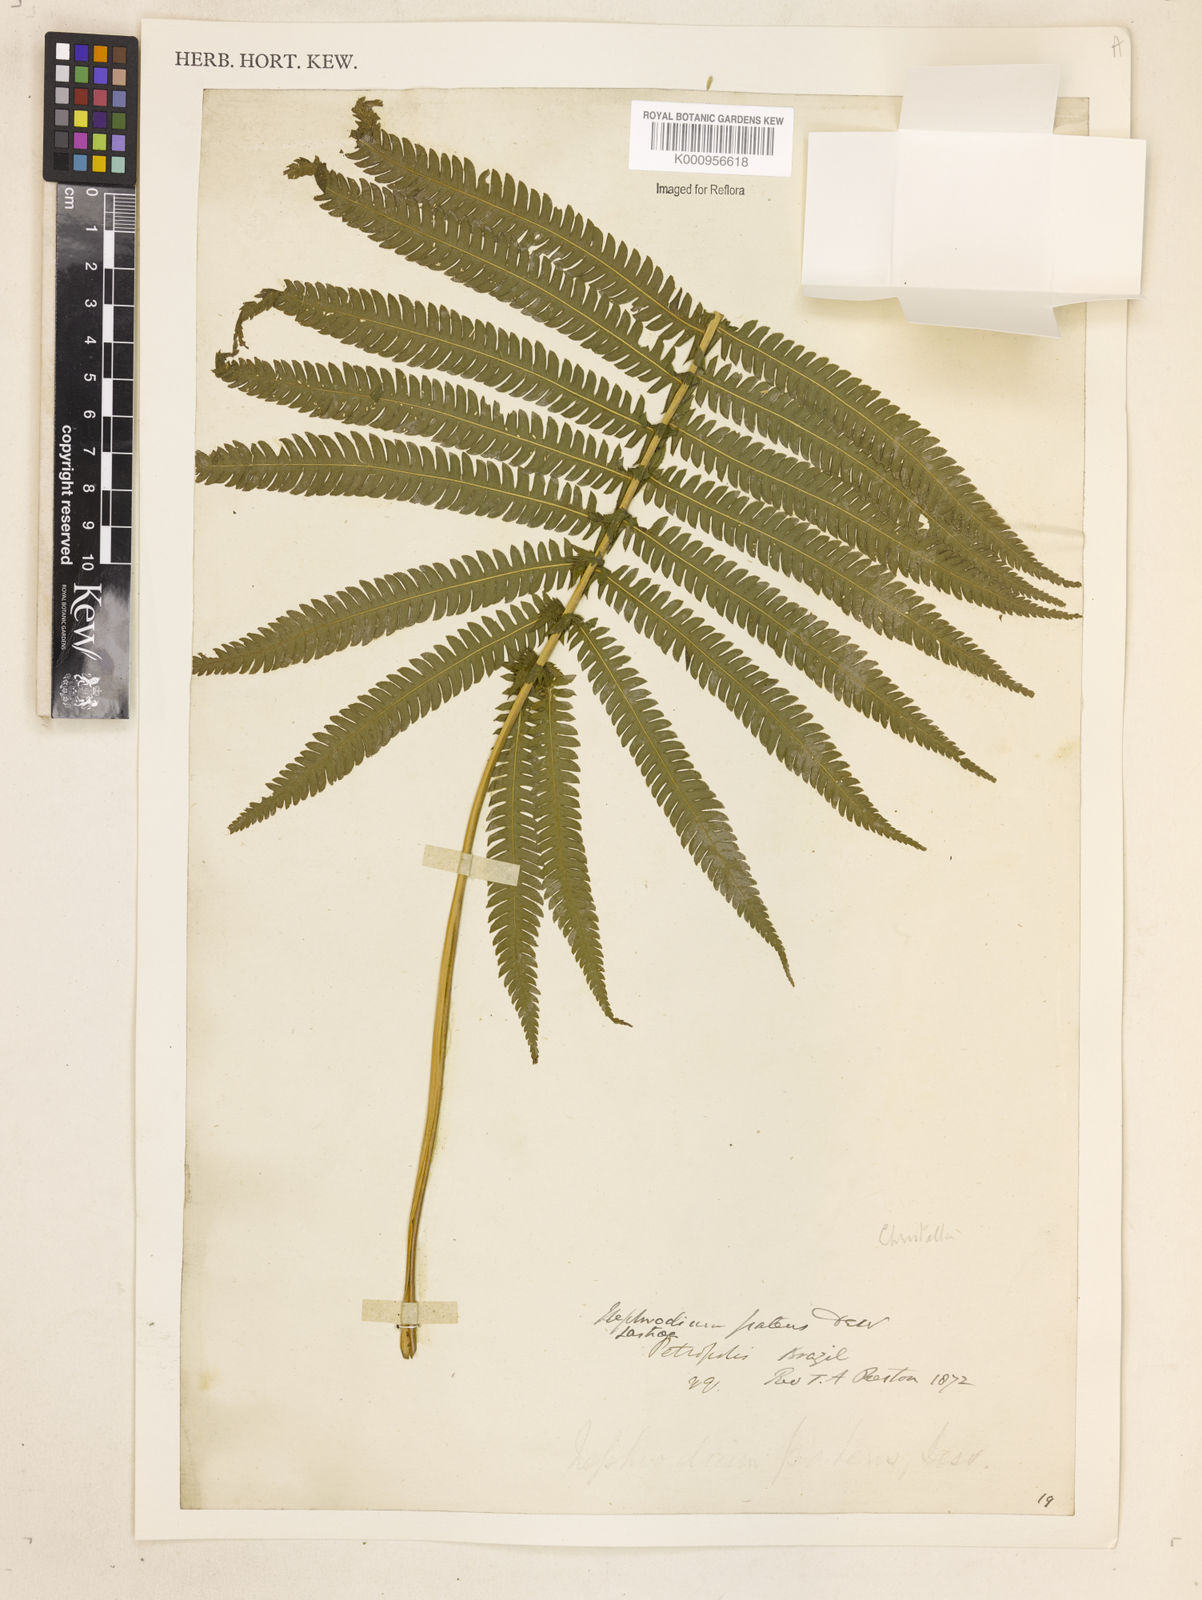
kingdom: Plantae
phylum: Tracheophyta
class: Polypodiopsida
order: Polypodiales
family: Thelypteridaceae
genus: Christella
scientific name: Christella
